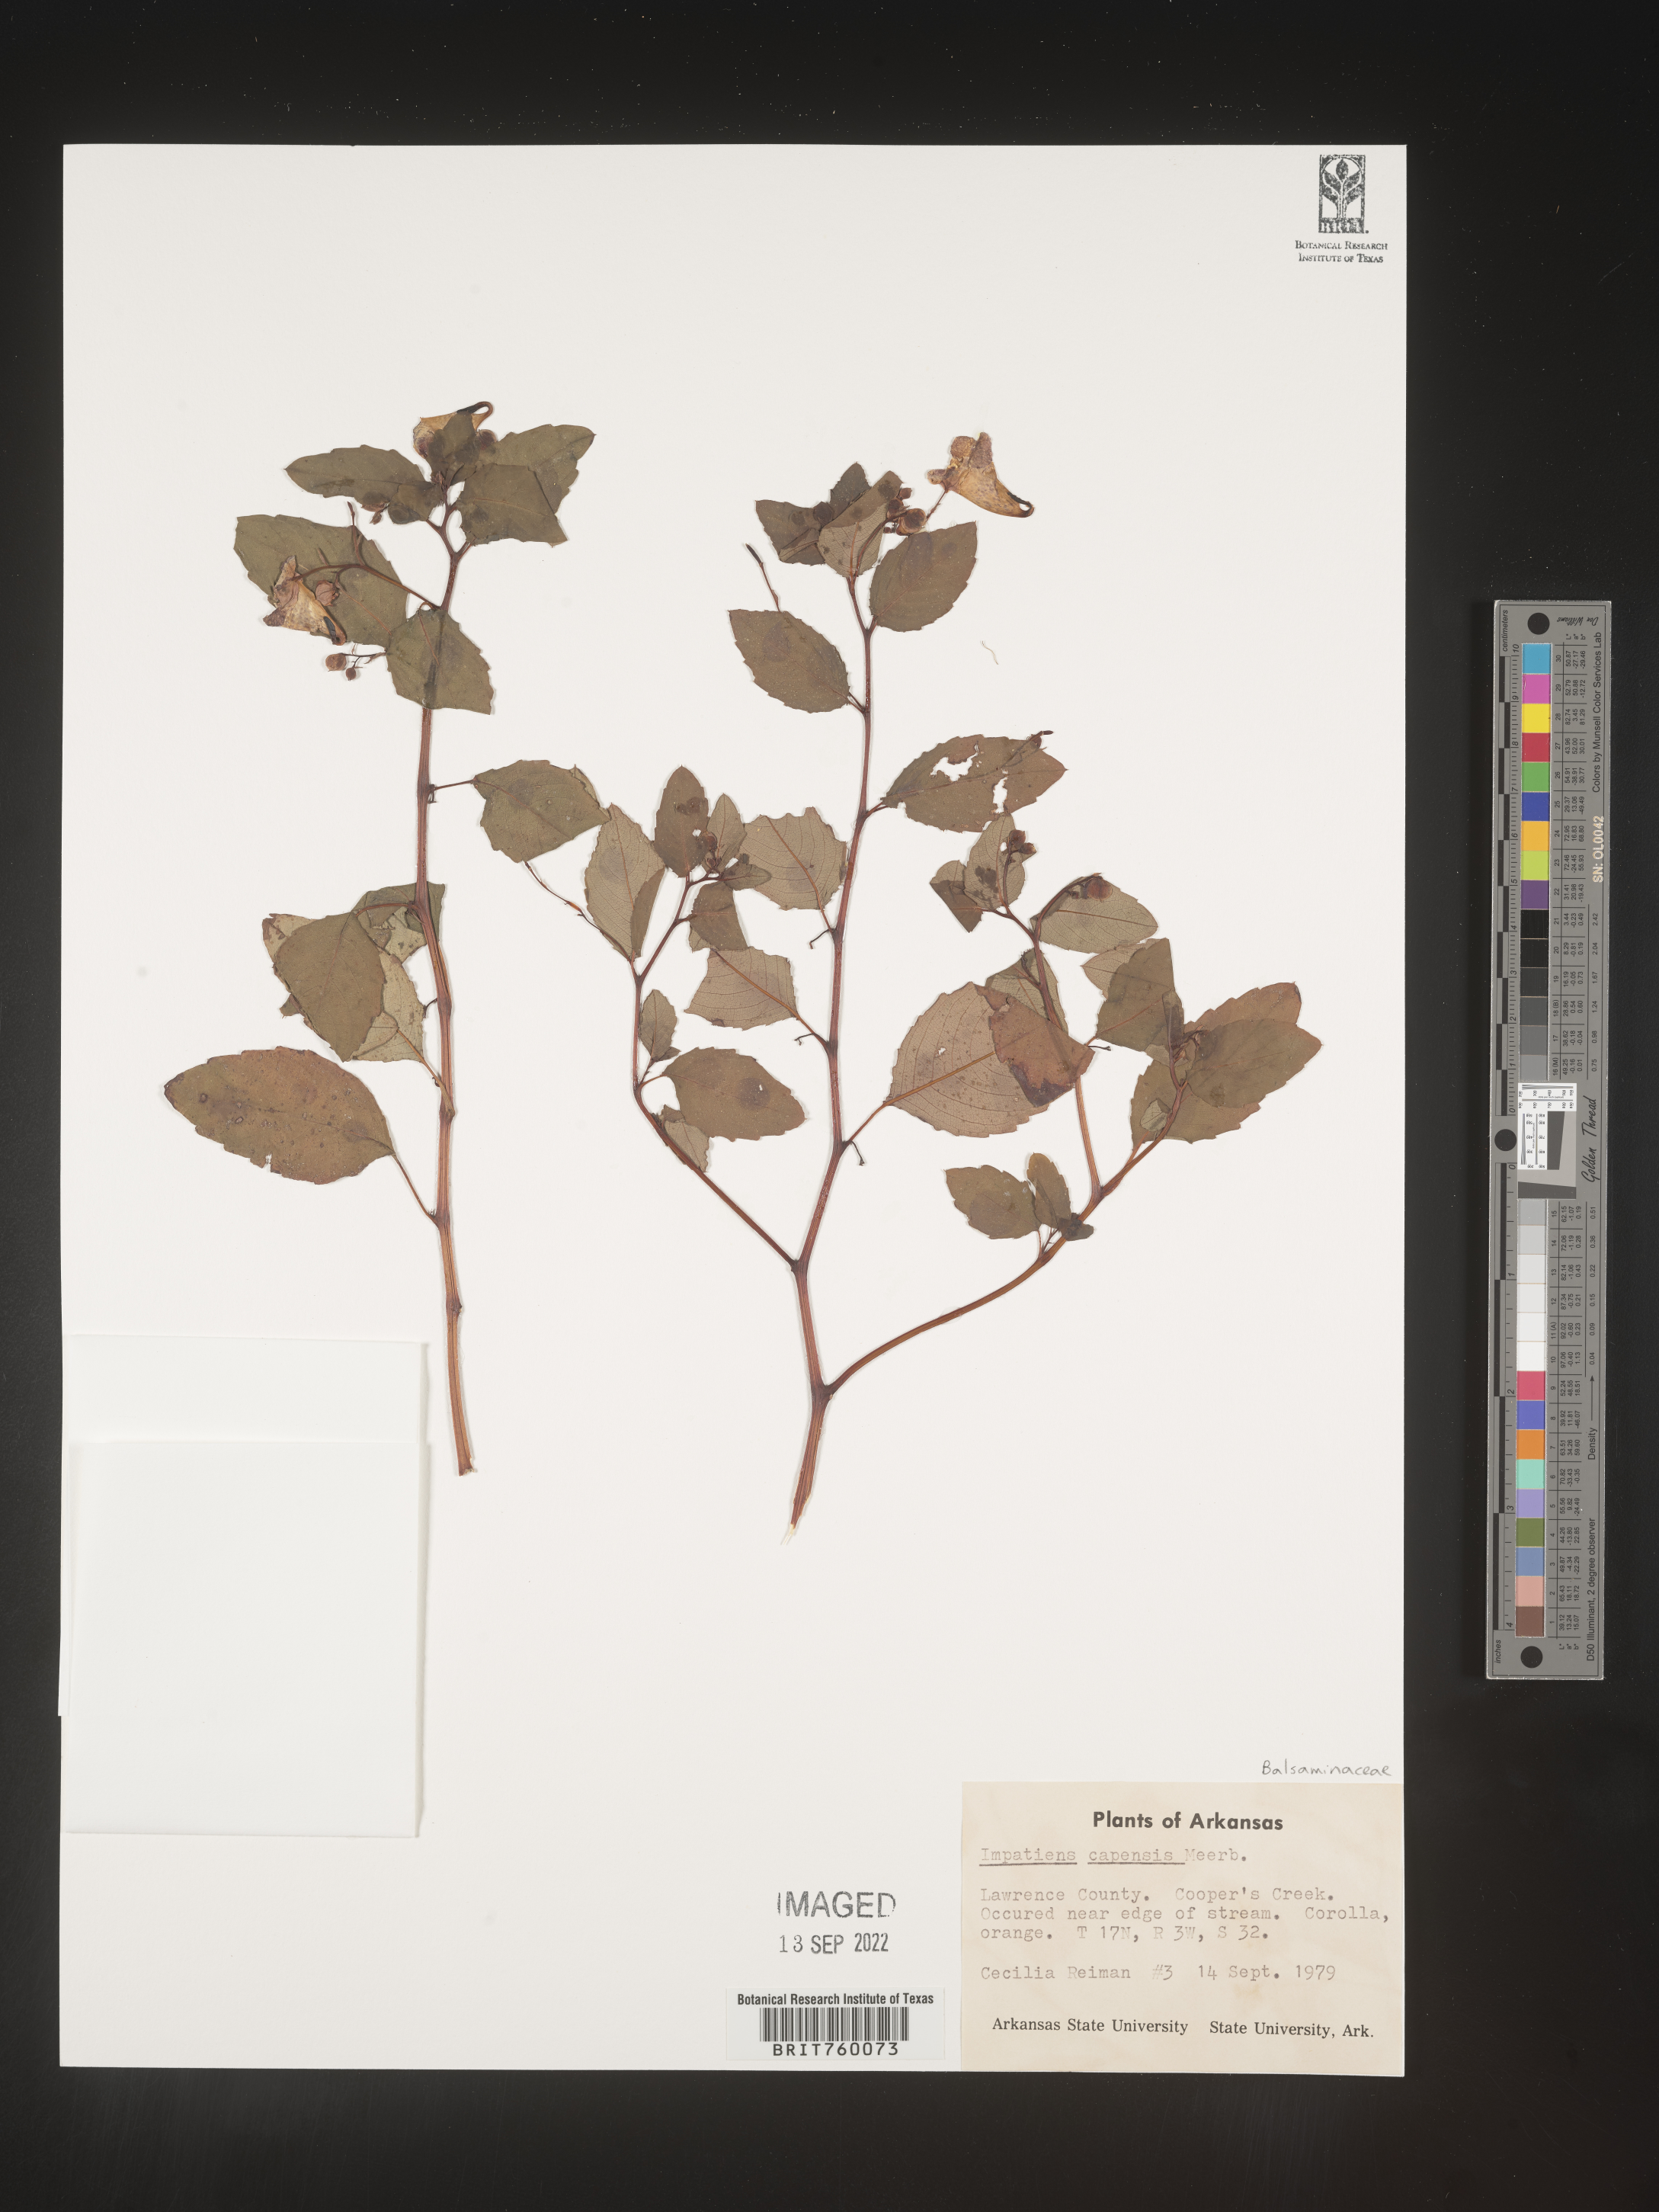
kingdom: Plantae
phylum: Tracheophyta
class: Magnoliopsida
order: Ericales
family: Balsaminaceae
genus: Impatiens
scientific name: Impatiens capensis
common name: Orange balsam
